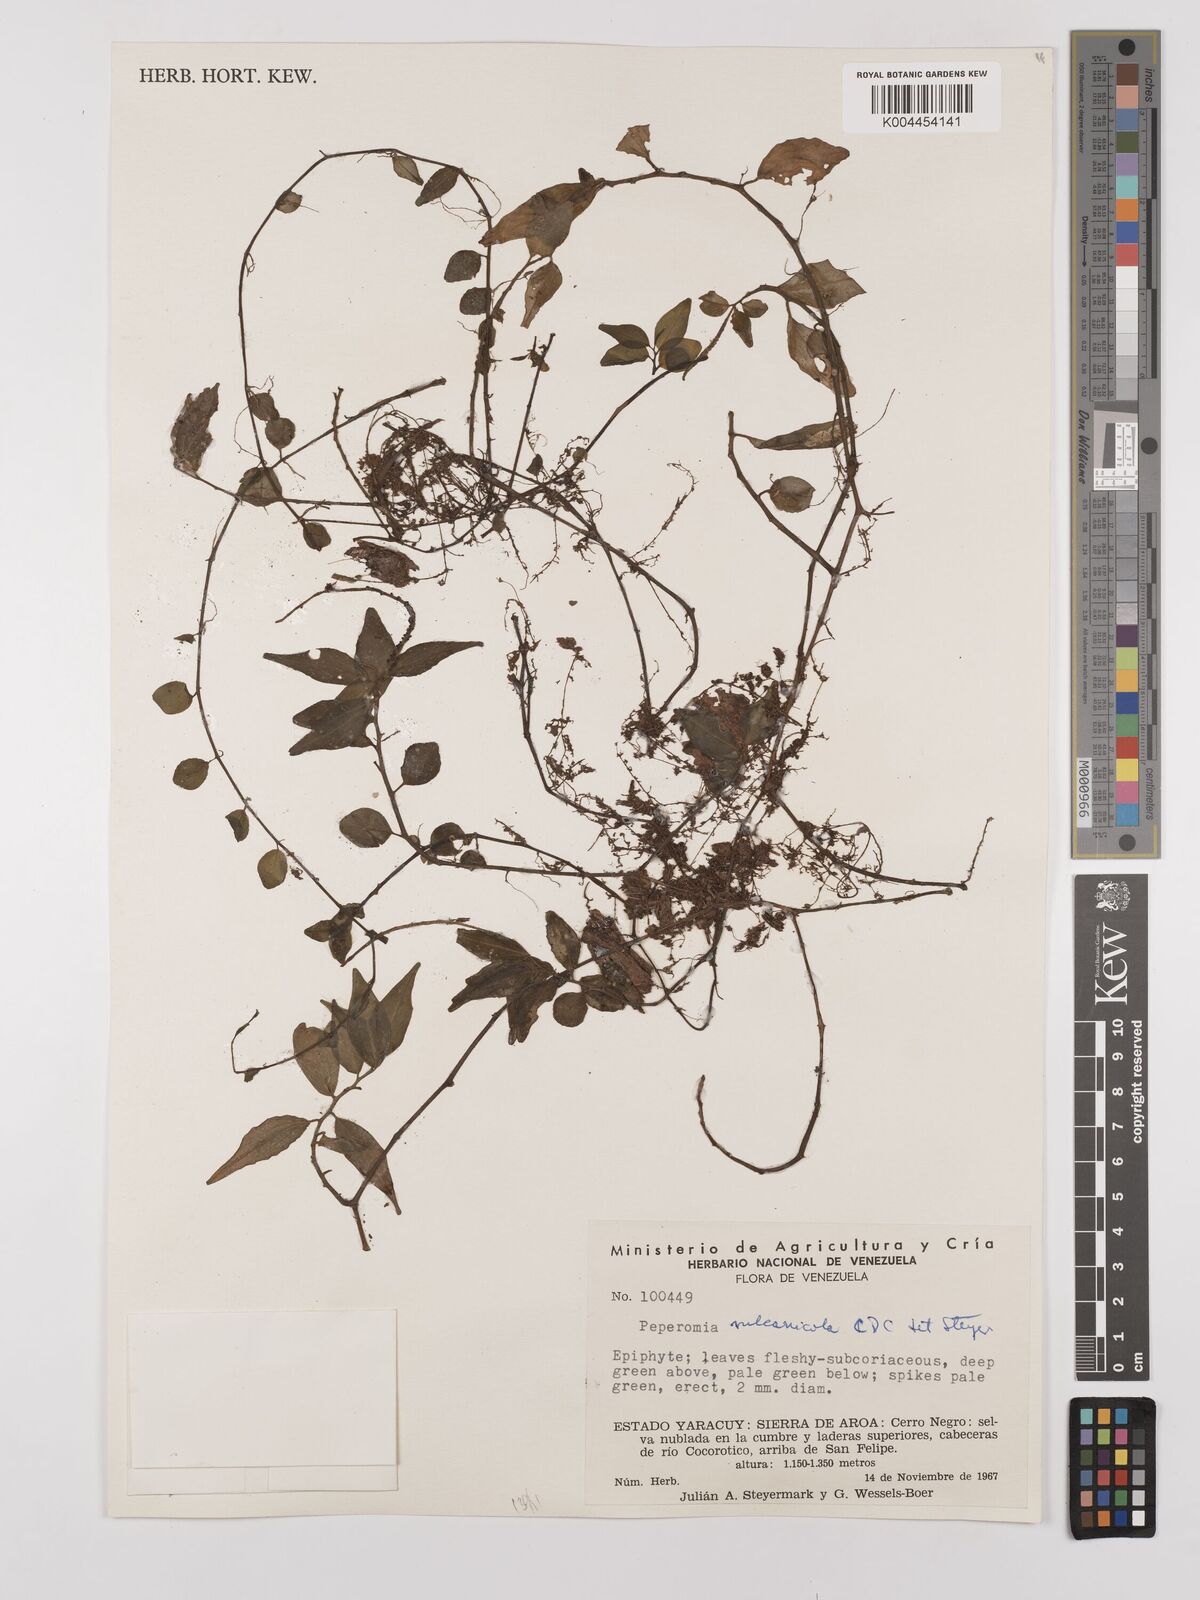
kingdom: Plantae
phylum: Tracheophyta
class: Magnoliopsida
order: Piperales
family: Piperaceae
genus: Peperomia
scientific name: Peperomia heterophylla
